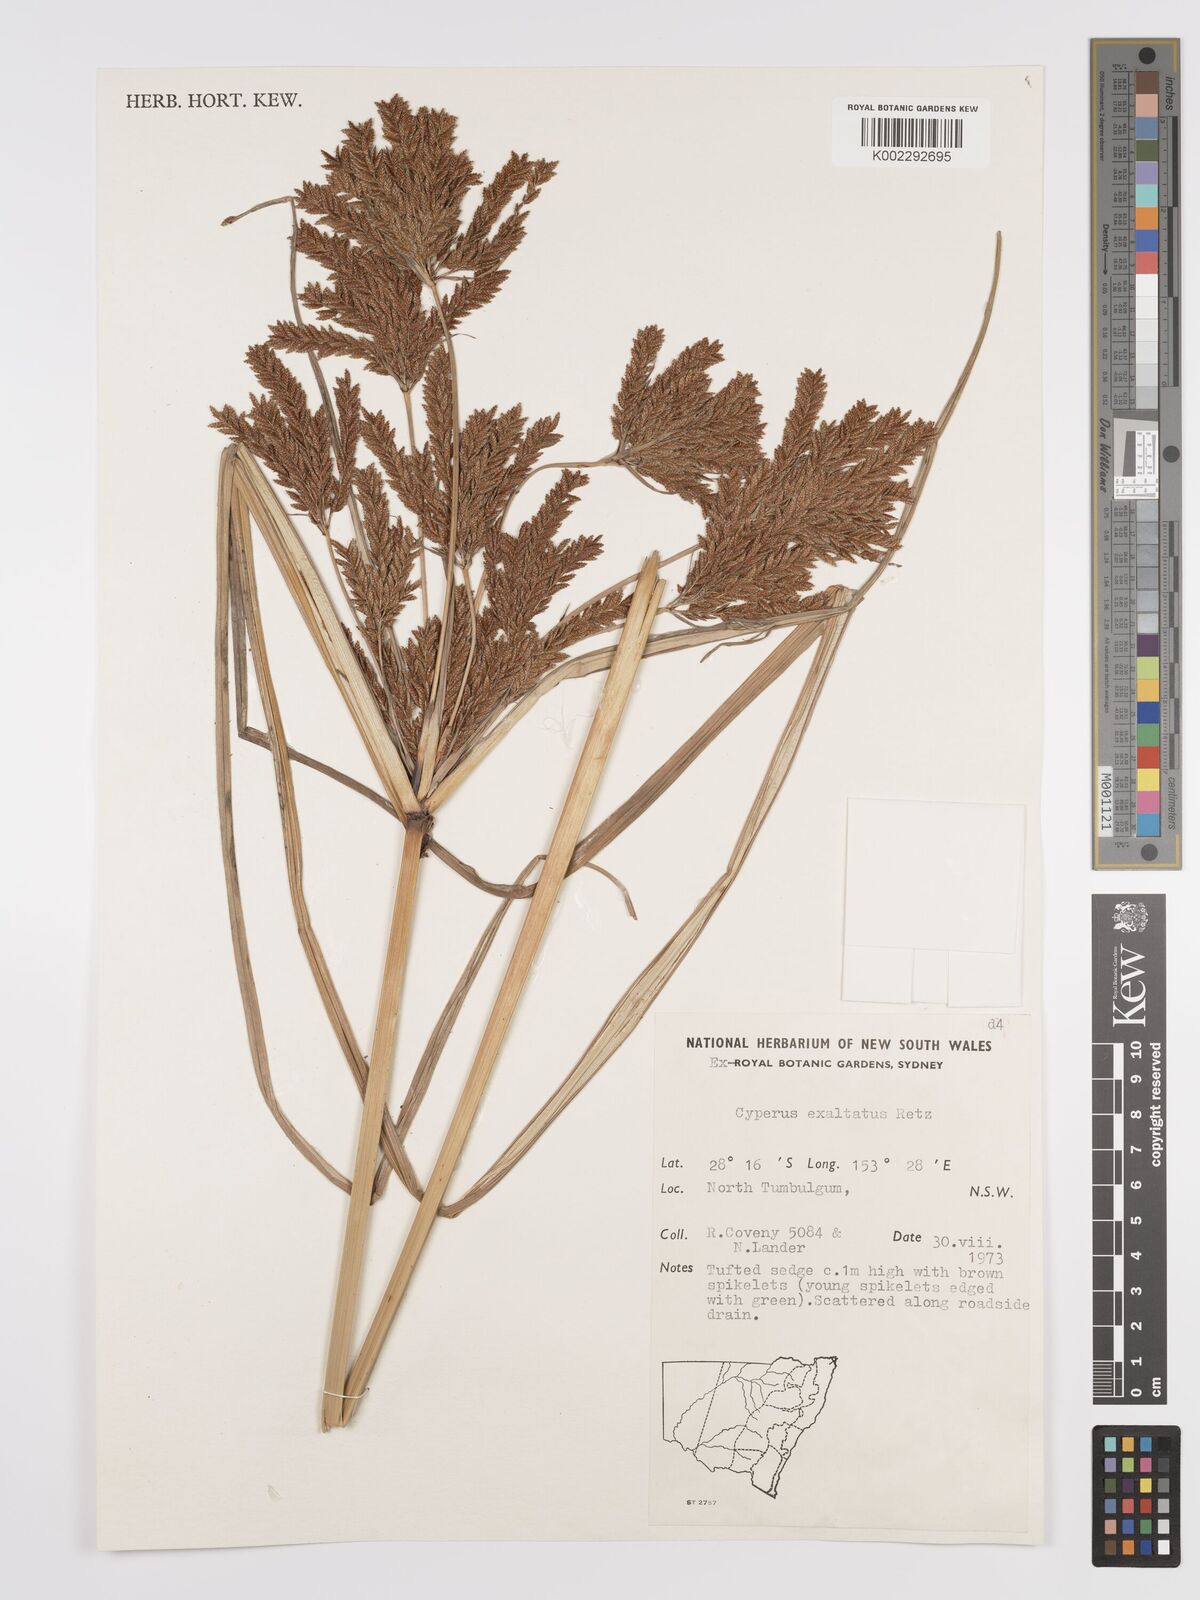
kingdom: Plantae
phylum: Tracheophyta
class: Liliopsida
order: Poales
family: Cyperaceae
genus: Cyperus
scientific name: Cyperus exaltatus
